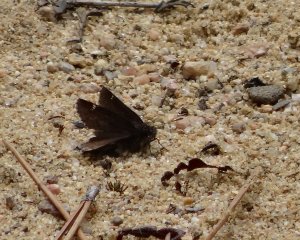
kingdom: Animalia
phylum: Arthropoda
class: Insecta
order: Lepidoptera
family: Hesperiidae
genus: Mastor
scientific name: Mastor vialis
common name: Common Roadside-Skipper
